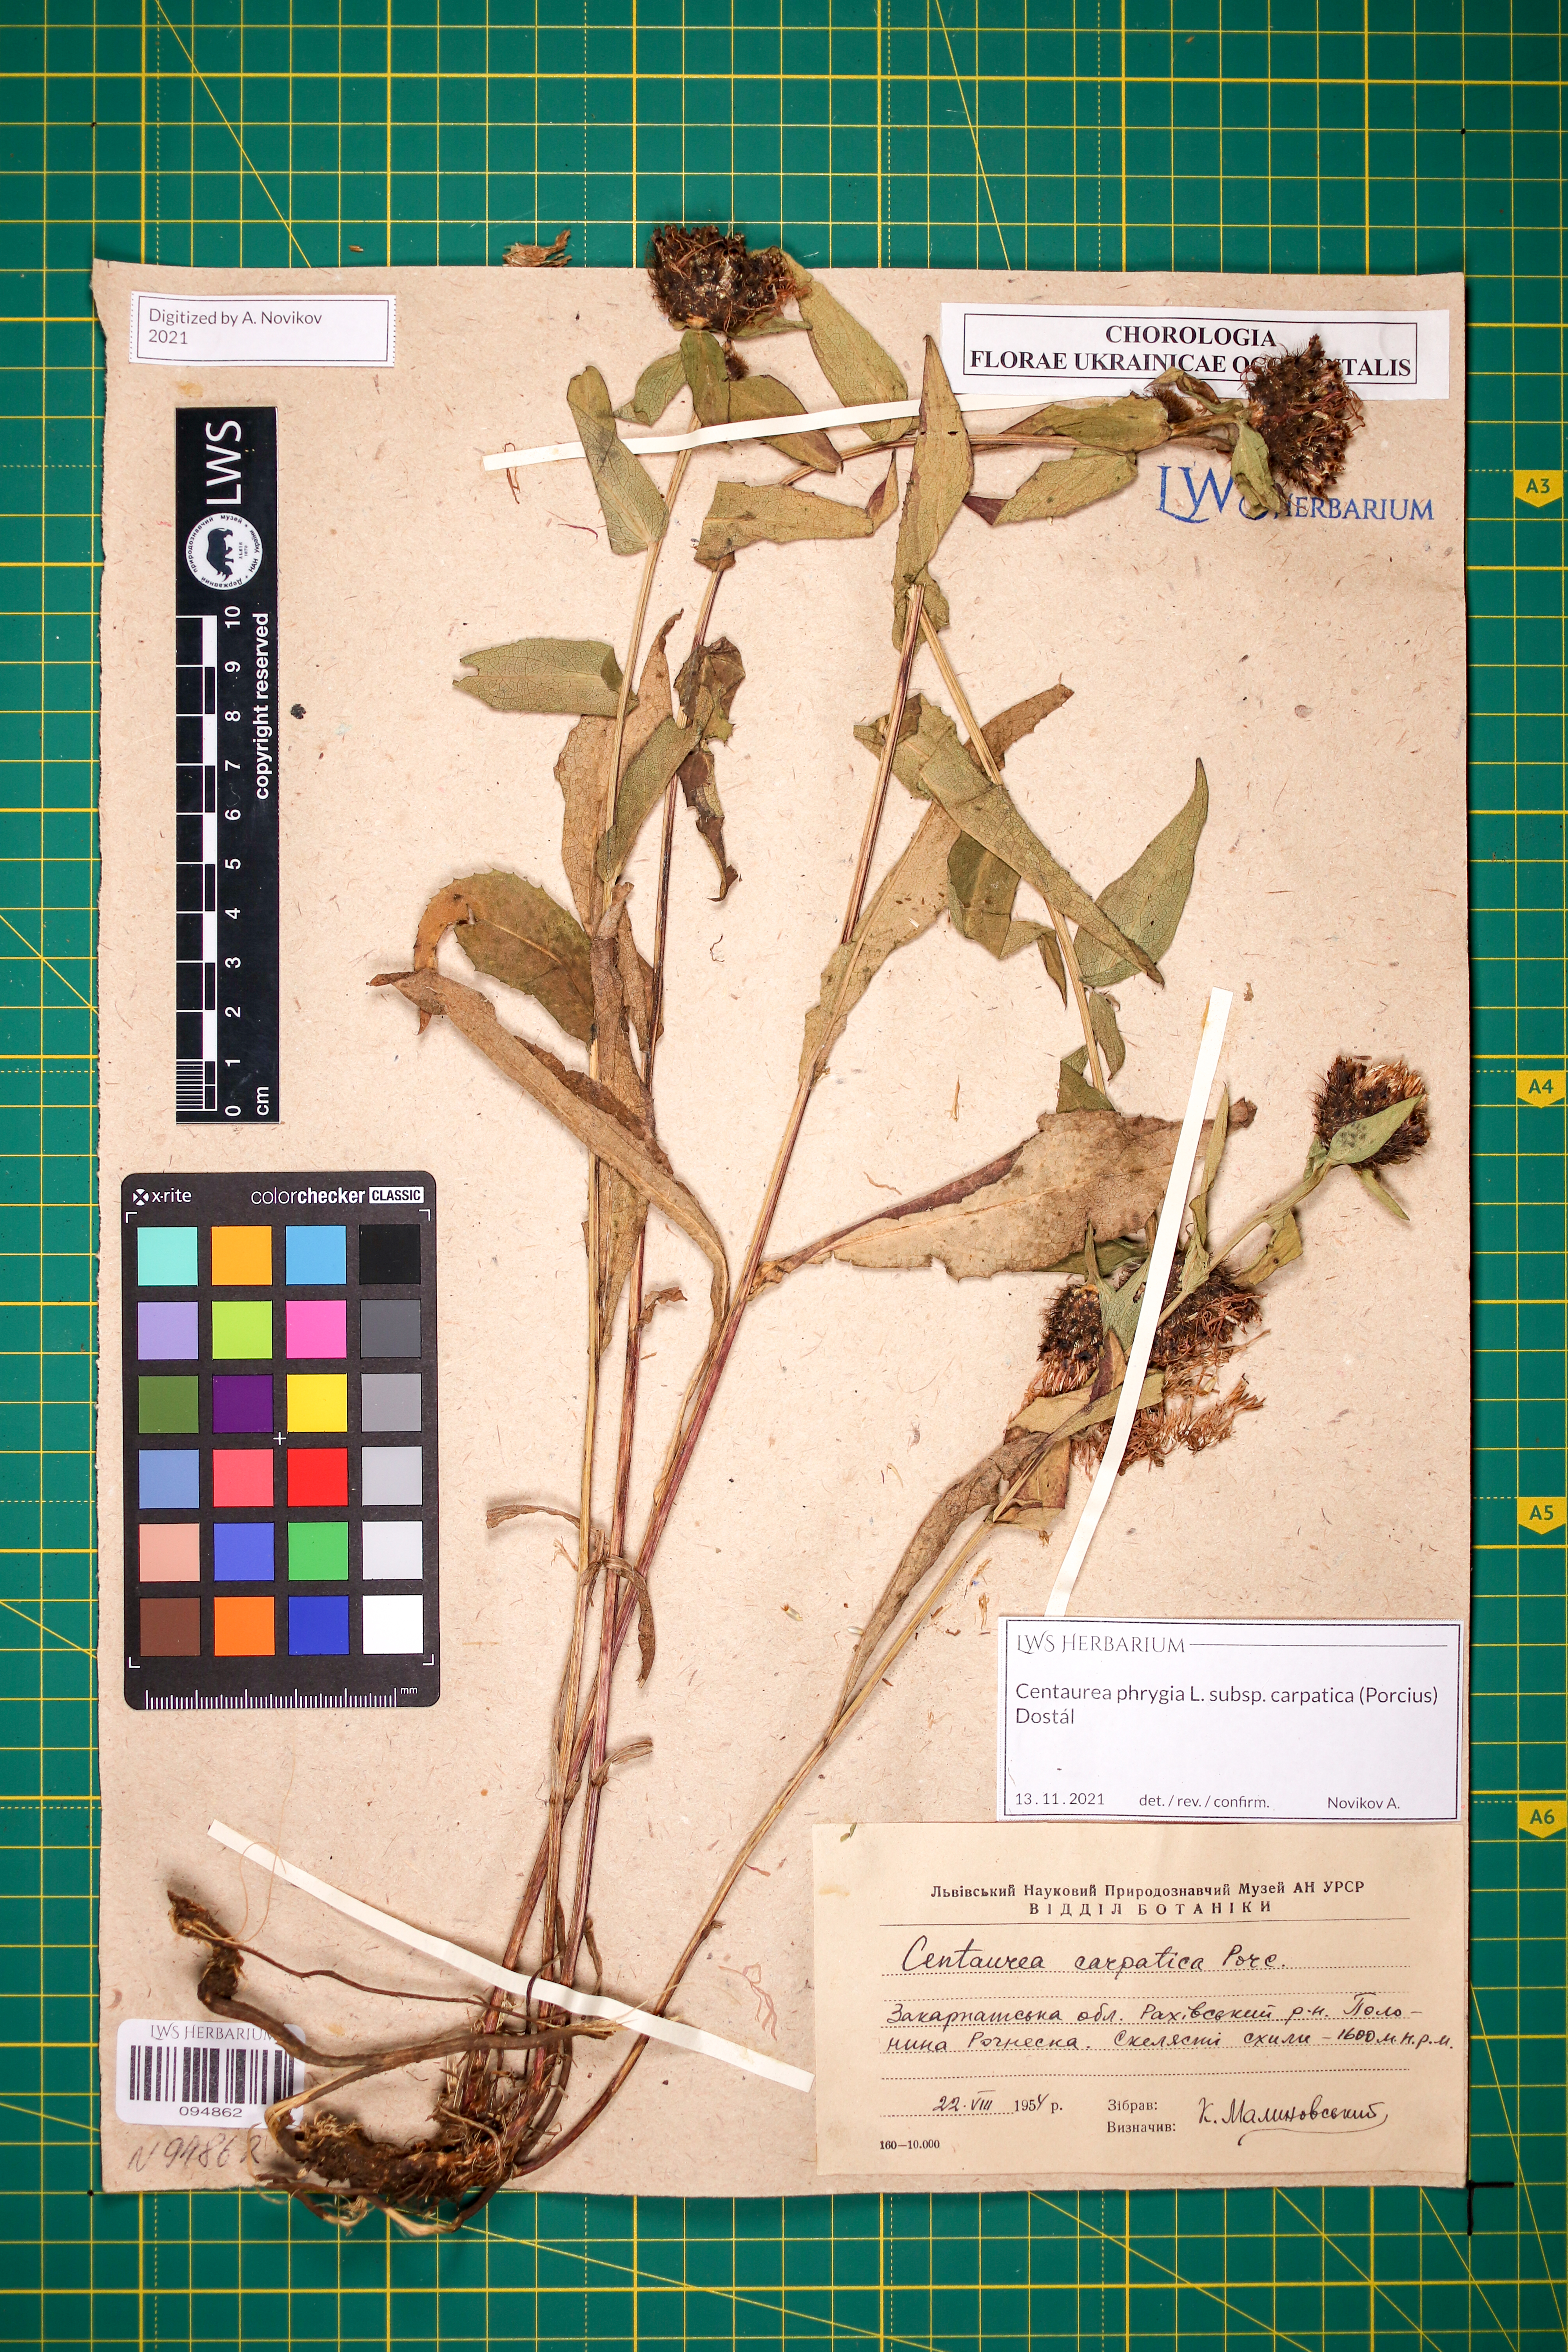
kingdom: Plantae
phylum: Tracheophyta
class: Magnoliopsida
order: Asterales
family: Asteraceae
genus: Centaurea
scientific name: Centaurea phrygia
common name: Wig knapweed
